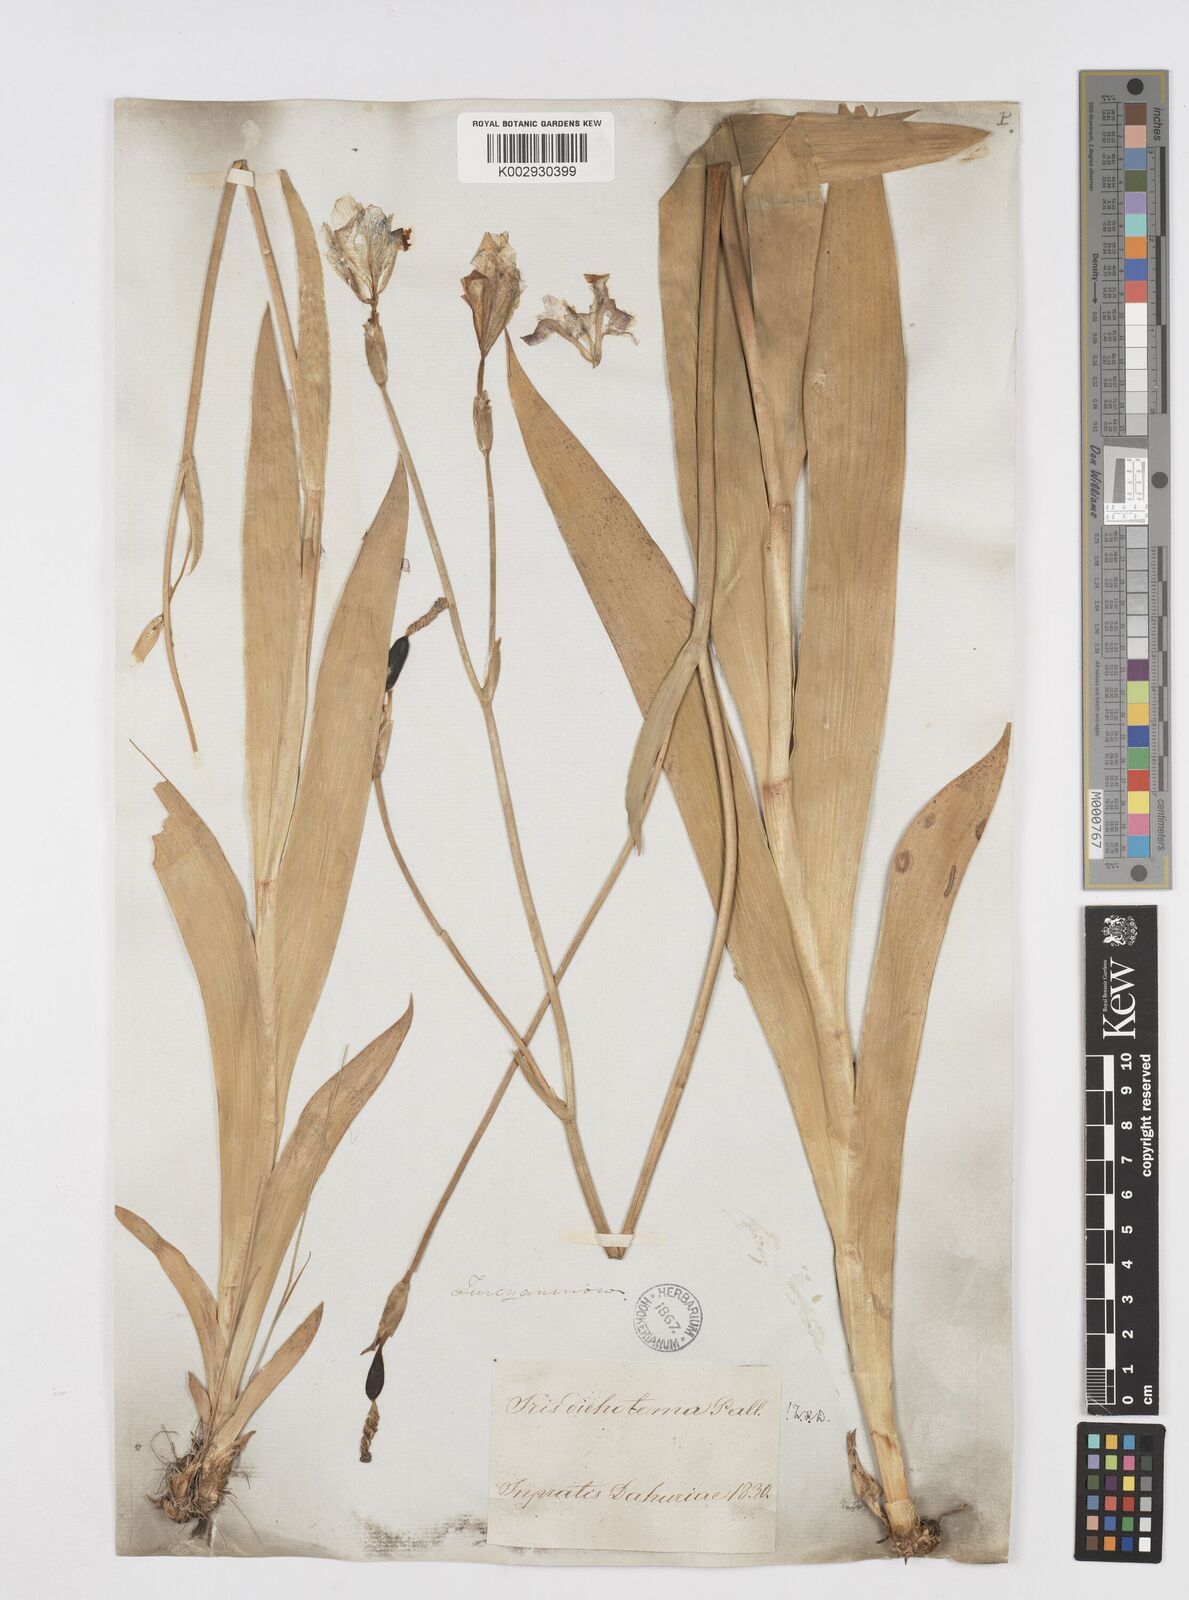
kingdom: Plantae
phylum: Tracheophyta
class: Liliopsida
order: Asparagales
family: Iridaceae
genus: Iris
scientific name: Iris dichotoma
